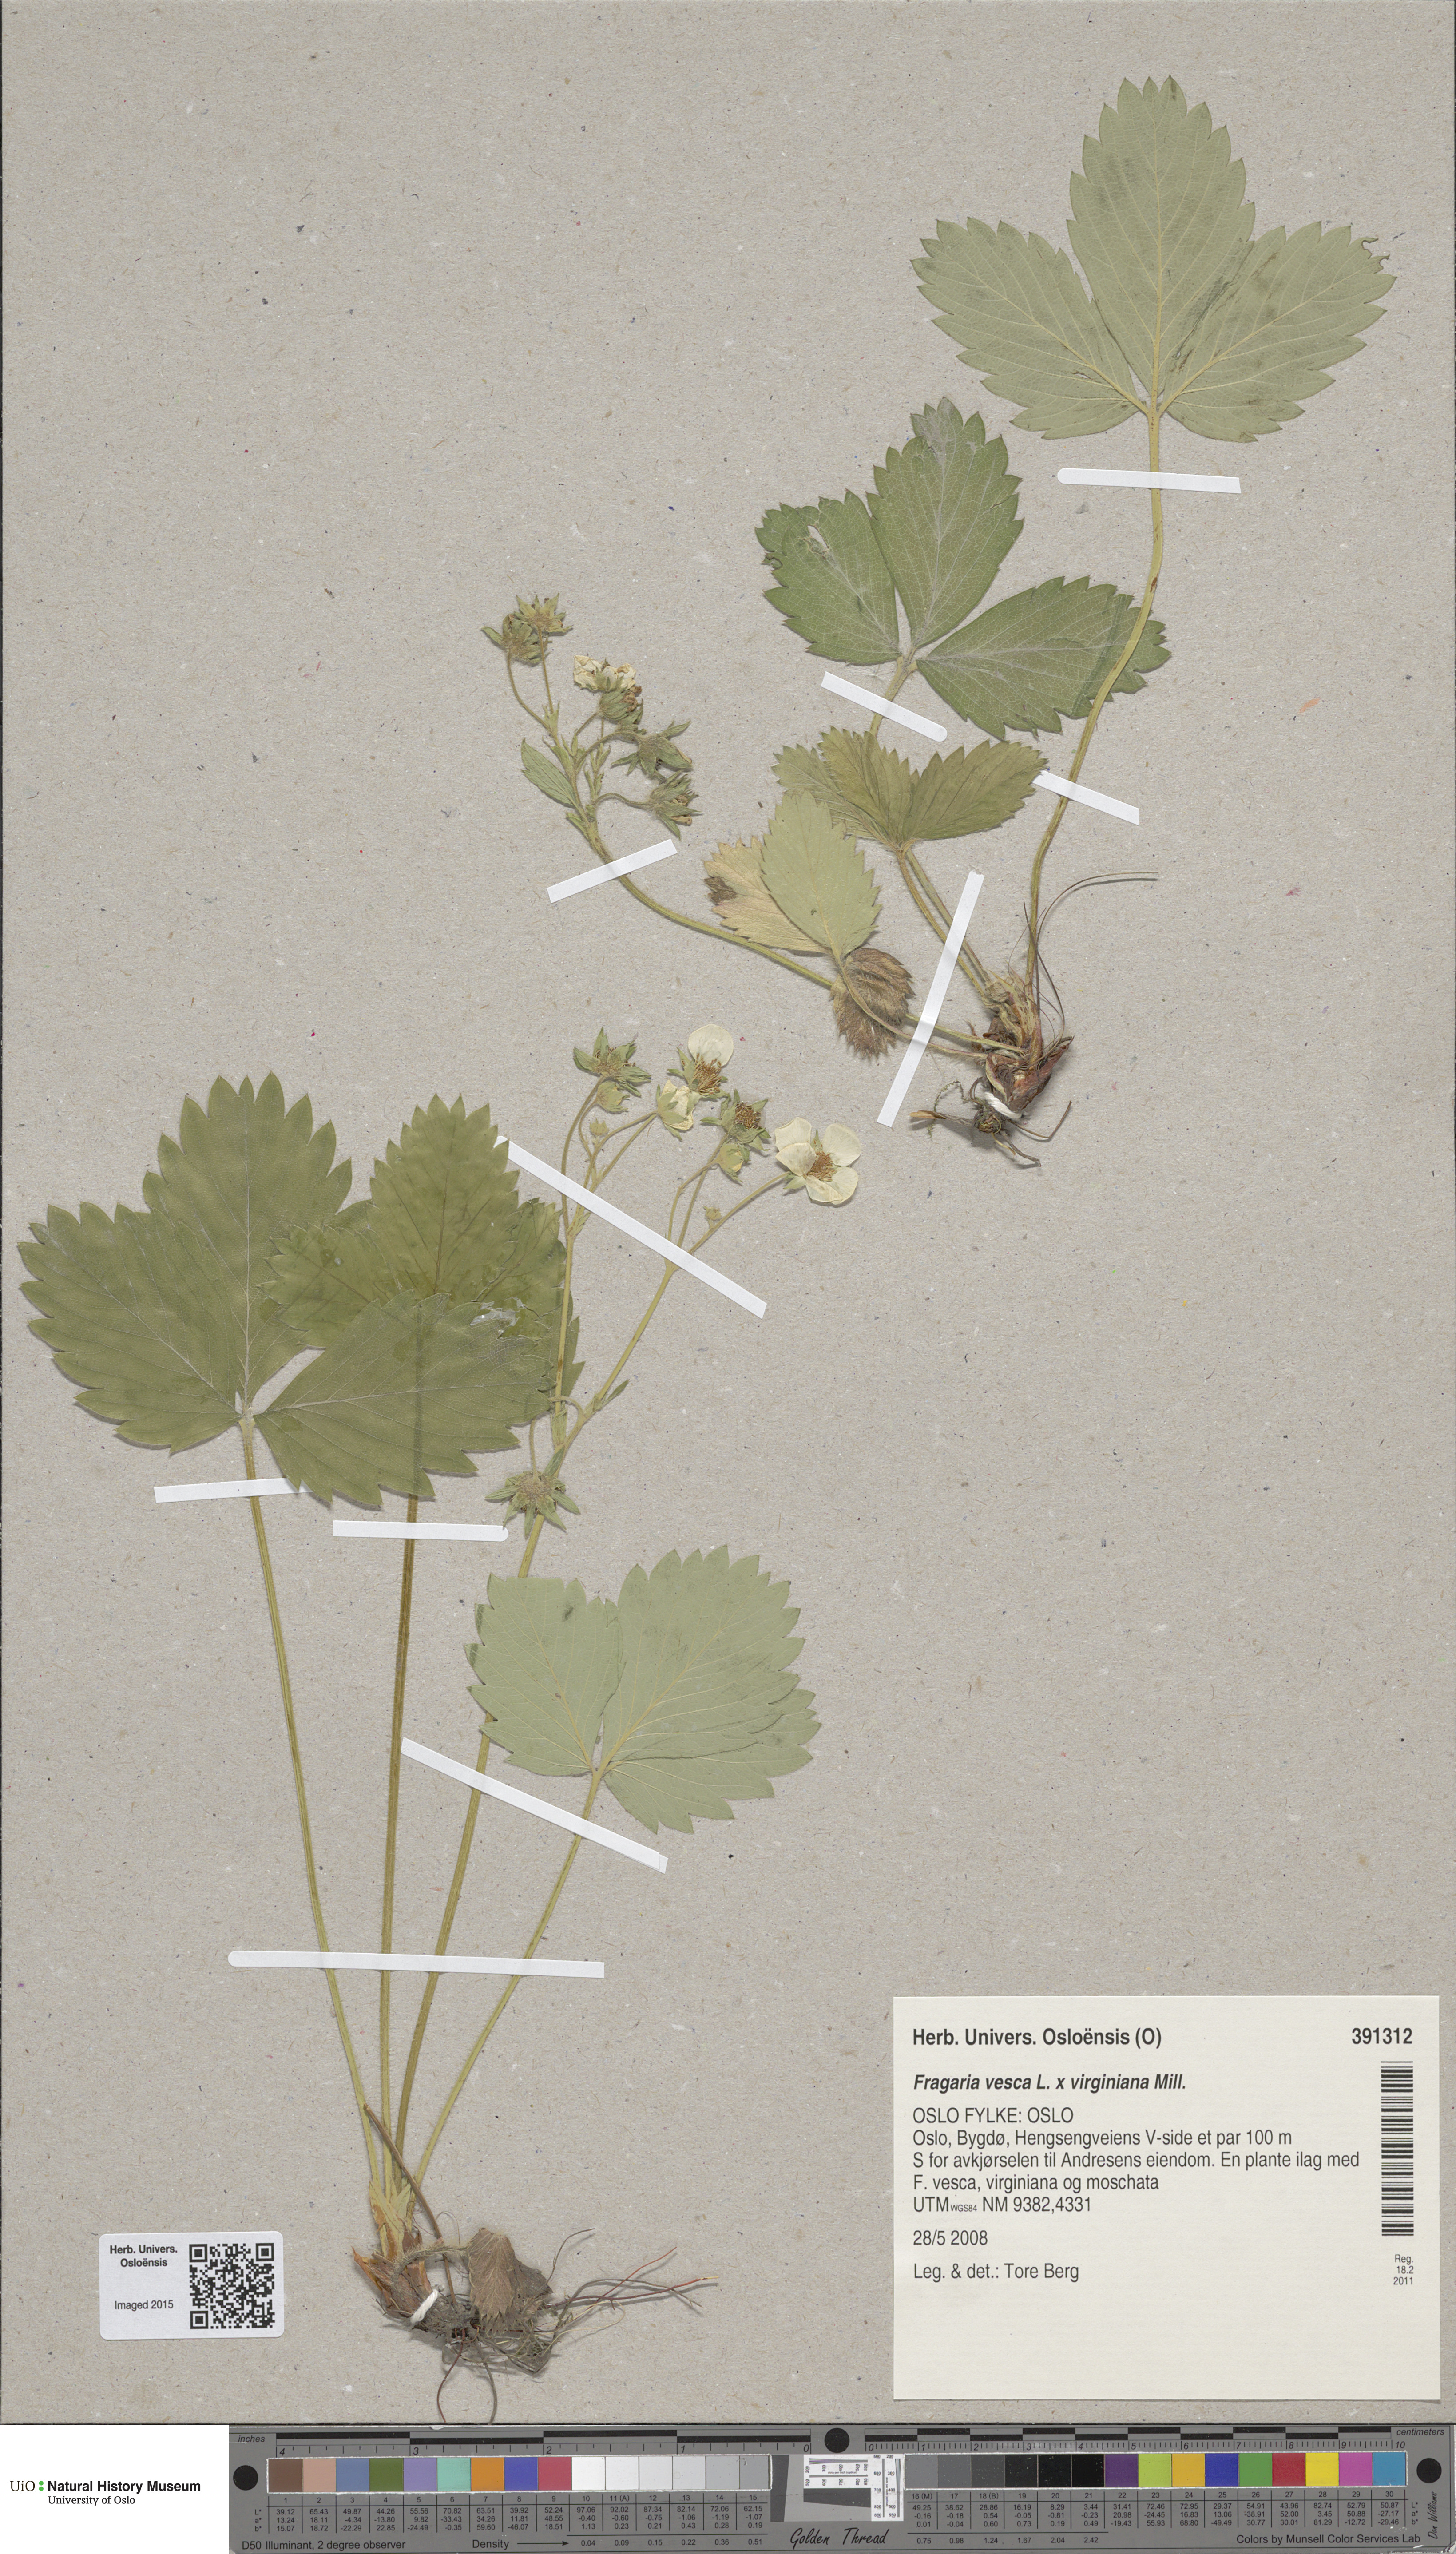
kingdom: Plantae
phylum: Tracheophyta
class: Magnoliopsida
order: Rosales
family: Rosaceae
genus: Fragaria
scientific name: Fragaria chiloensis
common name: Beach strawberry
